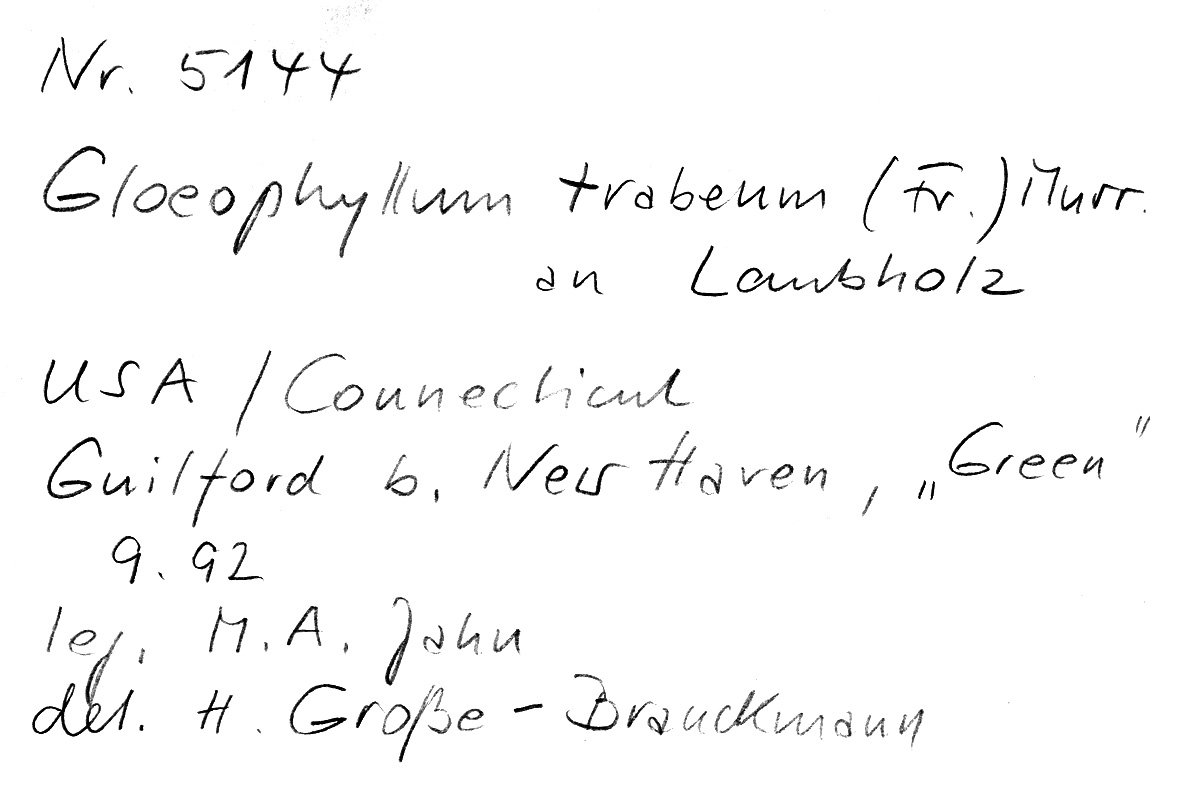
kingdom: Fungi
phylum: Basidiomycota
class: Agaricomycetes
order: Gloeophyllales
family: Gloeophyllaceae
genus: Gloeophyllum
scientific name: Gloeophyllum trabeum
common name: Timber mazegill
